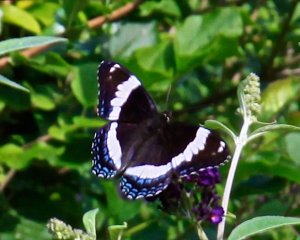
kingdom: Animalia
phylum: Arthropoda
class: Insecta
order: Lepidoptera
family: Nymphalidae
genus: Limenitis
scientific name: Limenitis arthemis
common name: Red-spotted Admiral
